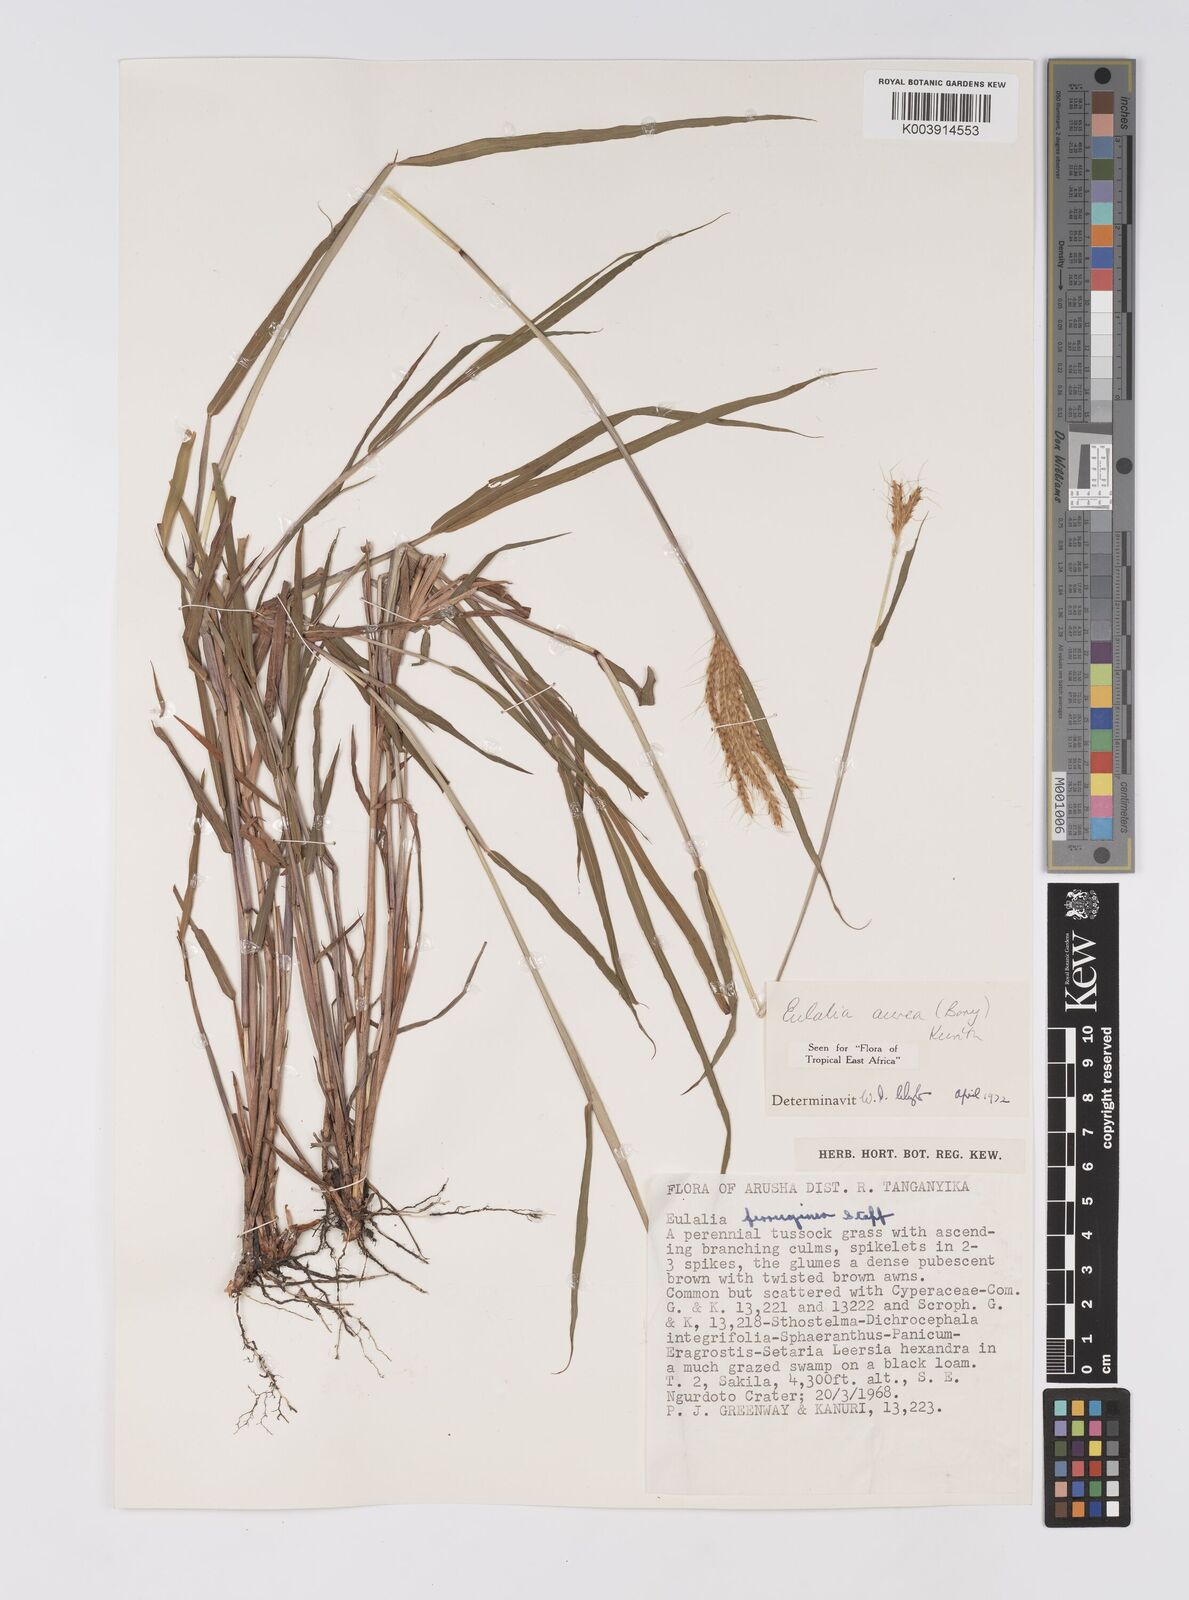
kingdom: Plantae
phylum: Tracheophyta
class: Liliopsida
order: Poales
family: Poaceae
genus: Eulalia
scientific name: Eulalia aurea
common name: Silky browntop
